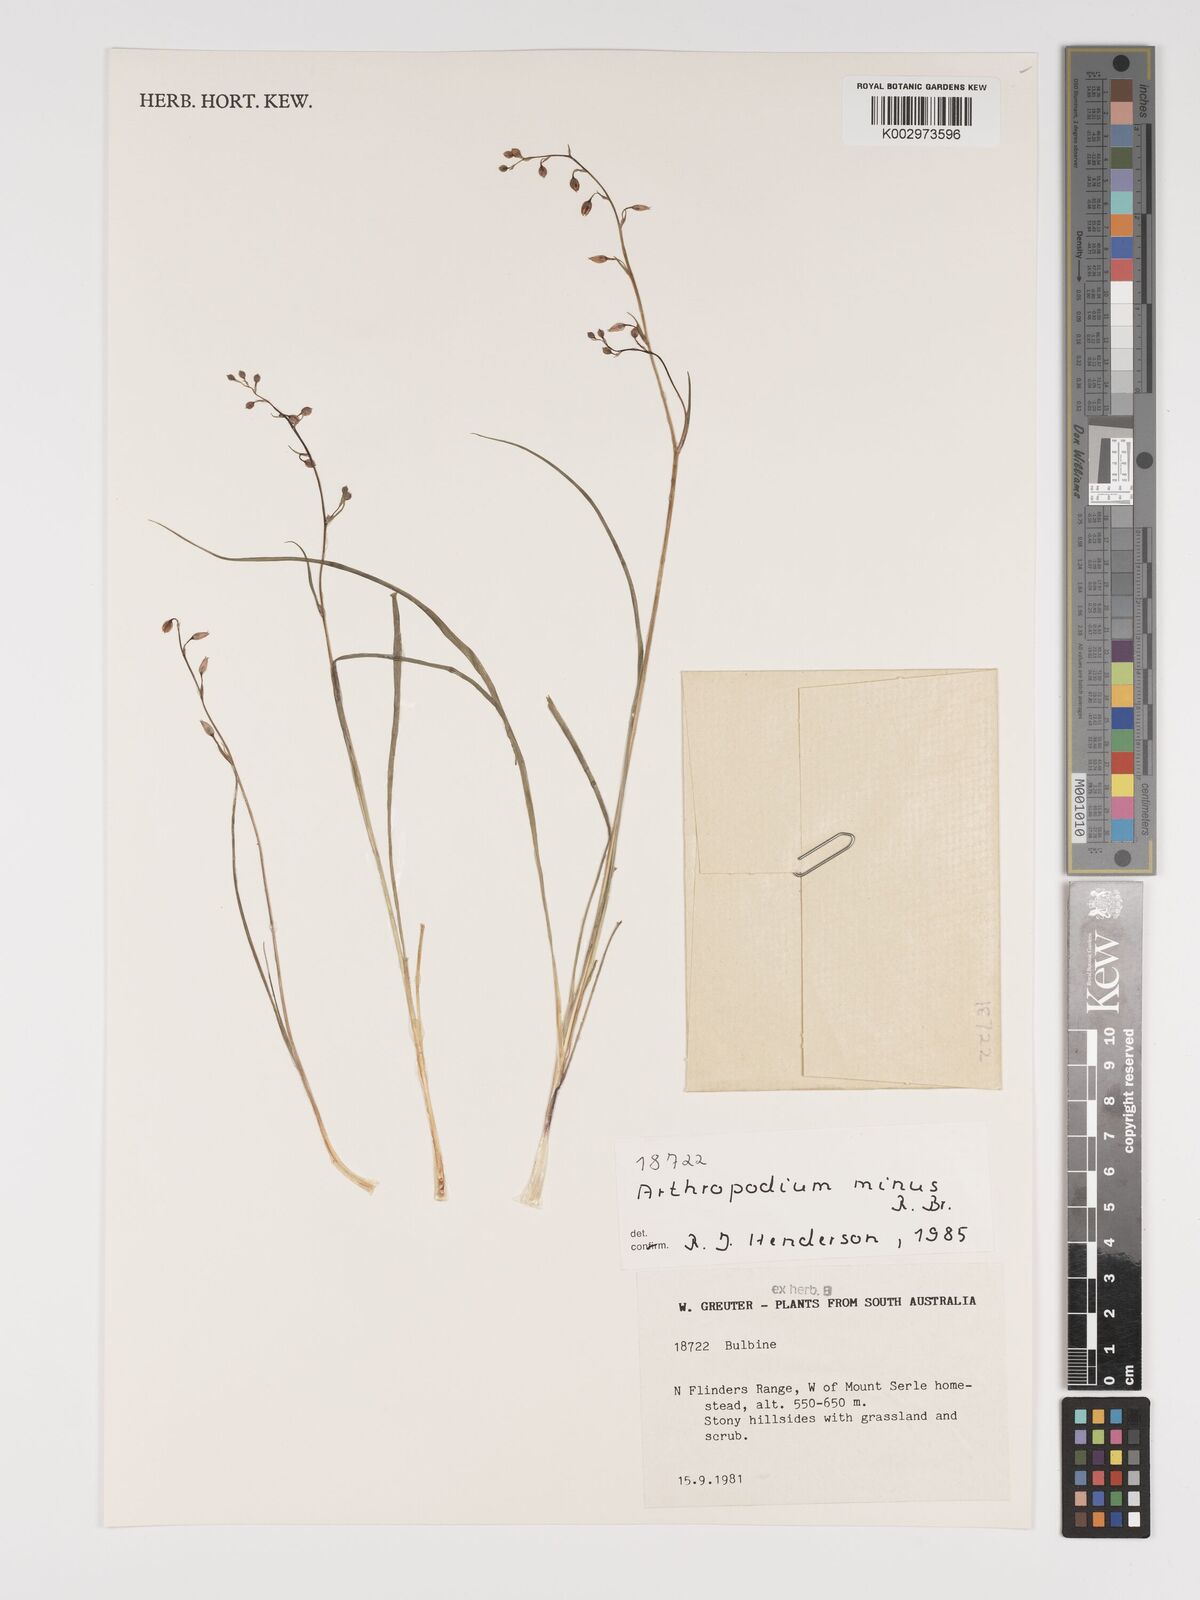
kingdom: Plantae
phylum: Tracheophyta
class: Liliopsida
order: Asparagales
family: Asparagaceae
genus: Arthropodium
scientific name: Arthropodium minus
